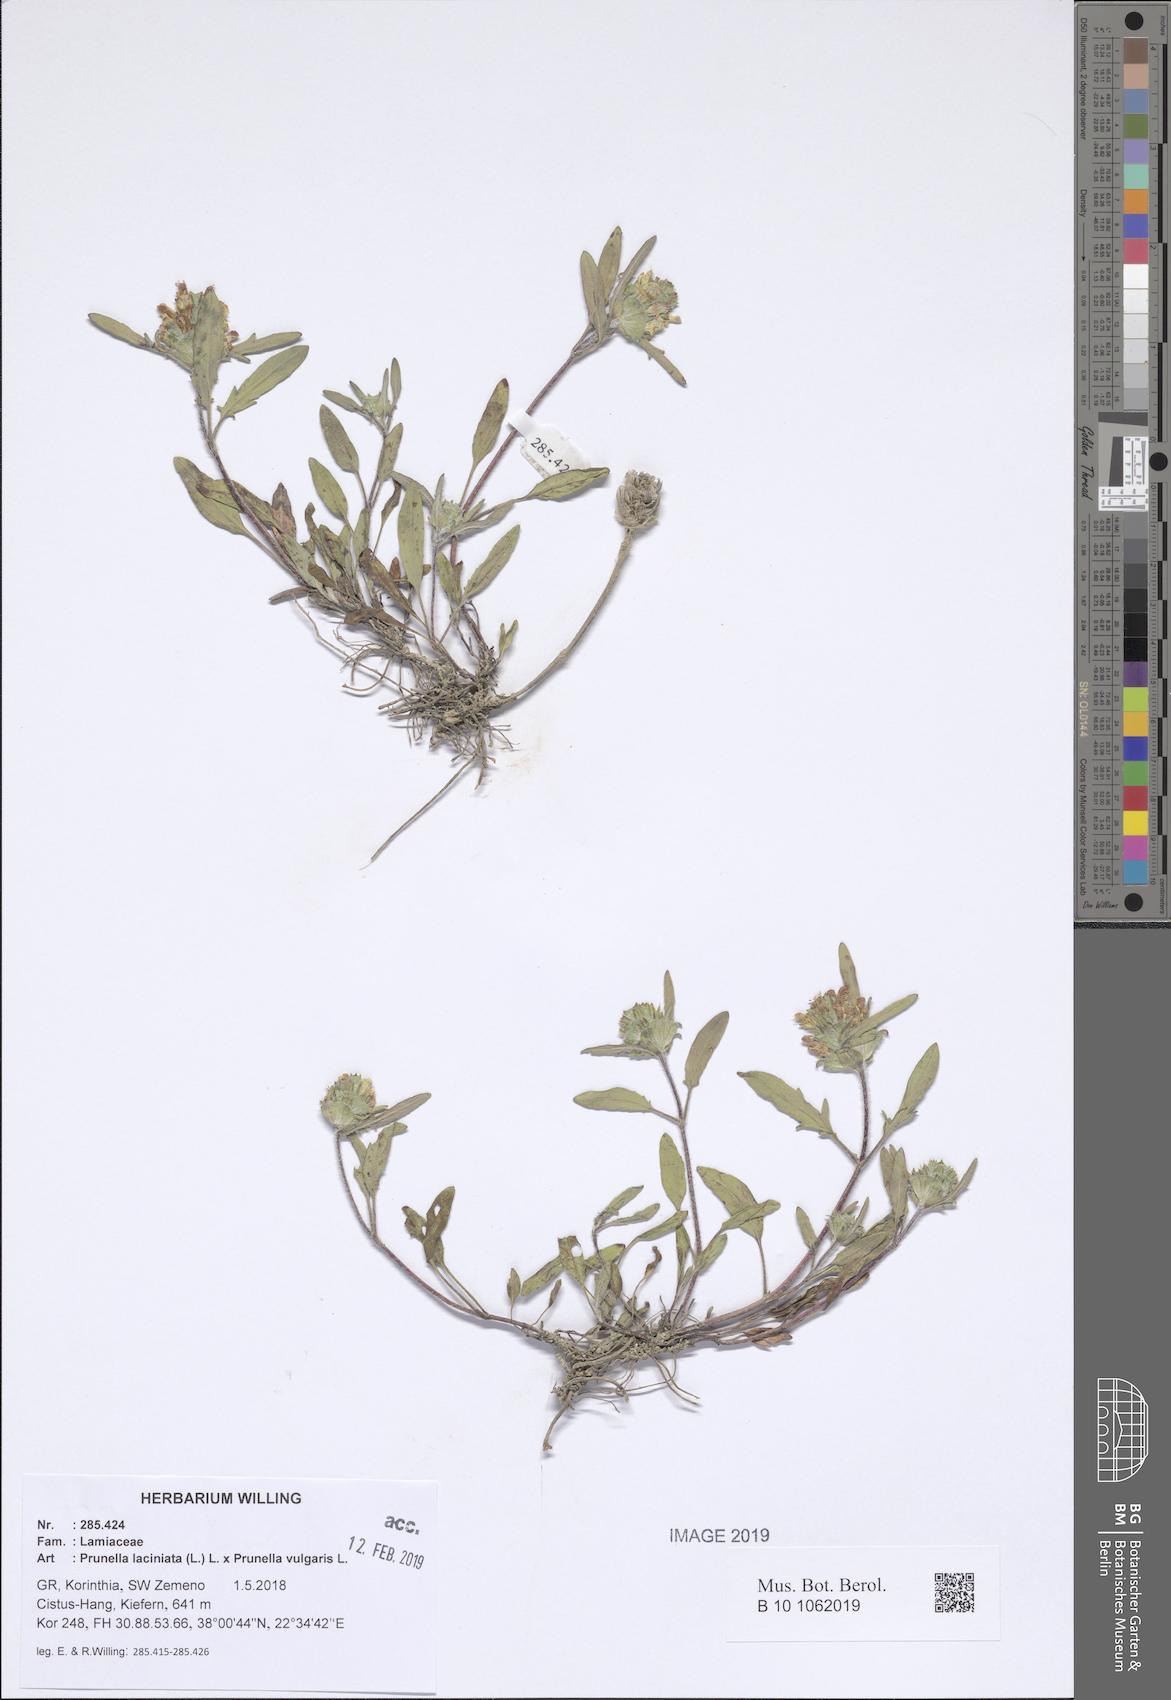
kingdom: Plantae
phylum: Tracheophyta
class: Magnoliopsida
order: Lamiales
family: Lamiaceae
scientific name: Lamiaceae
